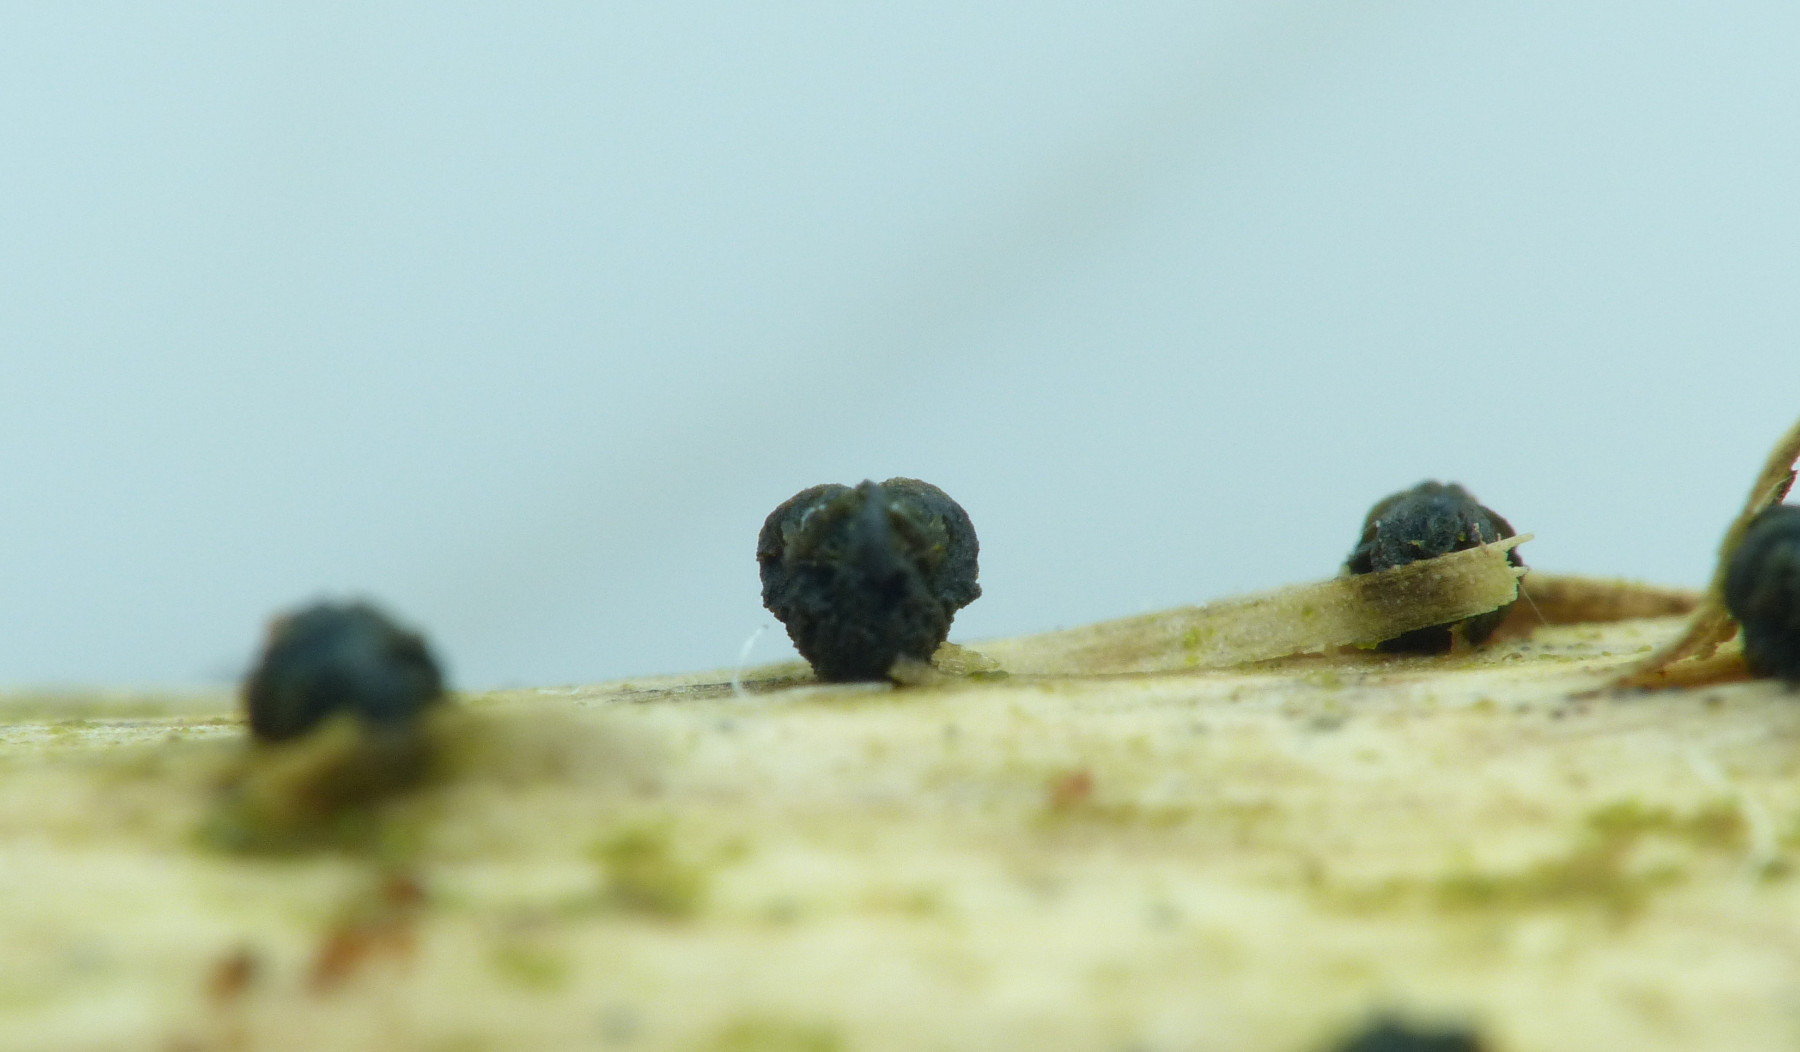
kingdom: Fungi
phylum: Ascomycota
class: Leotiomycetes
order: Helotiales
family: Godroniaceae
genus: Godronia
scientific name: Godronia muehlenbeckii
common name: tagrør-urneskive
